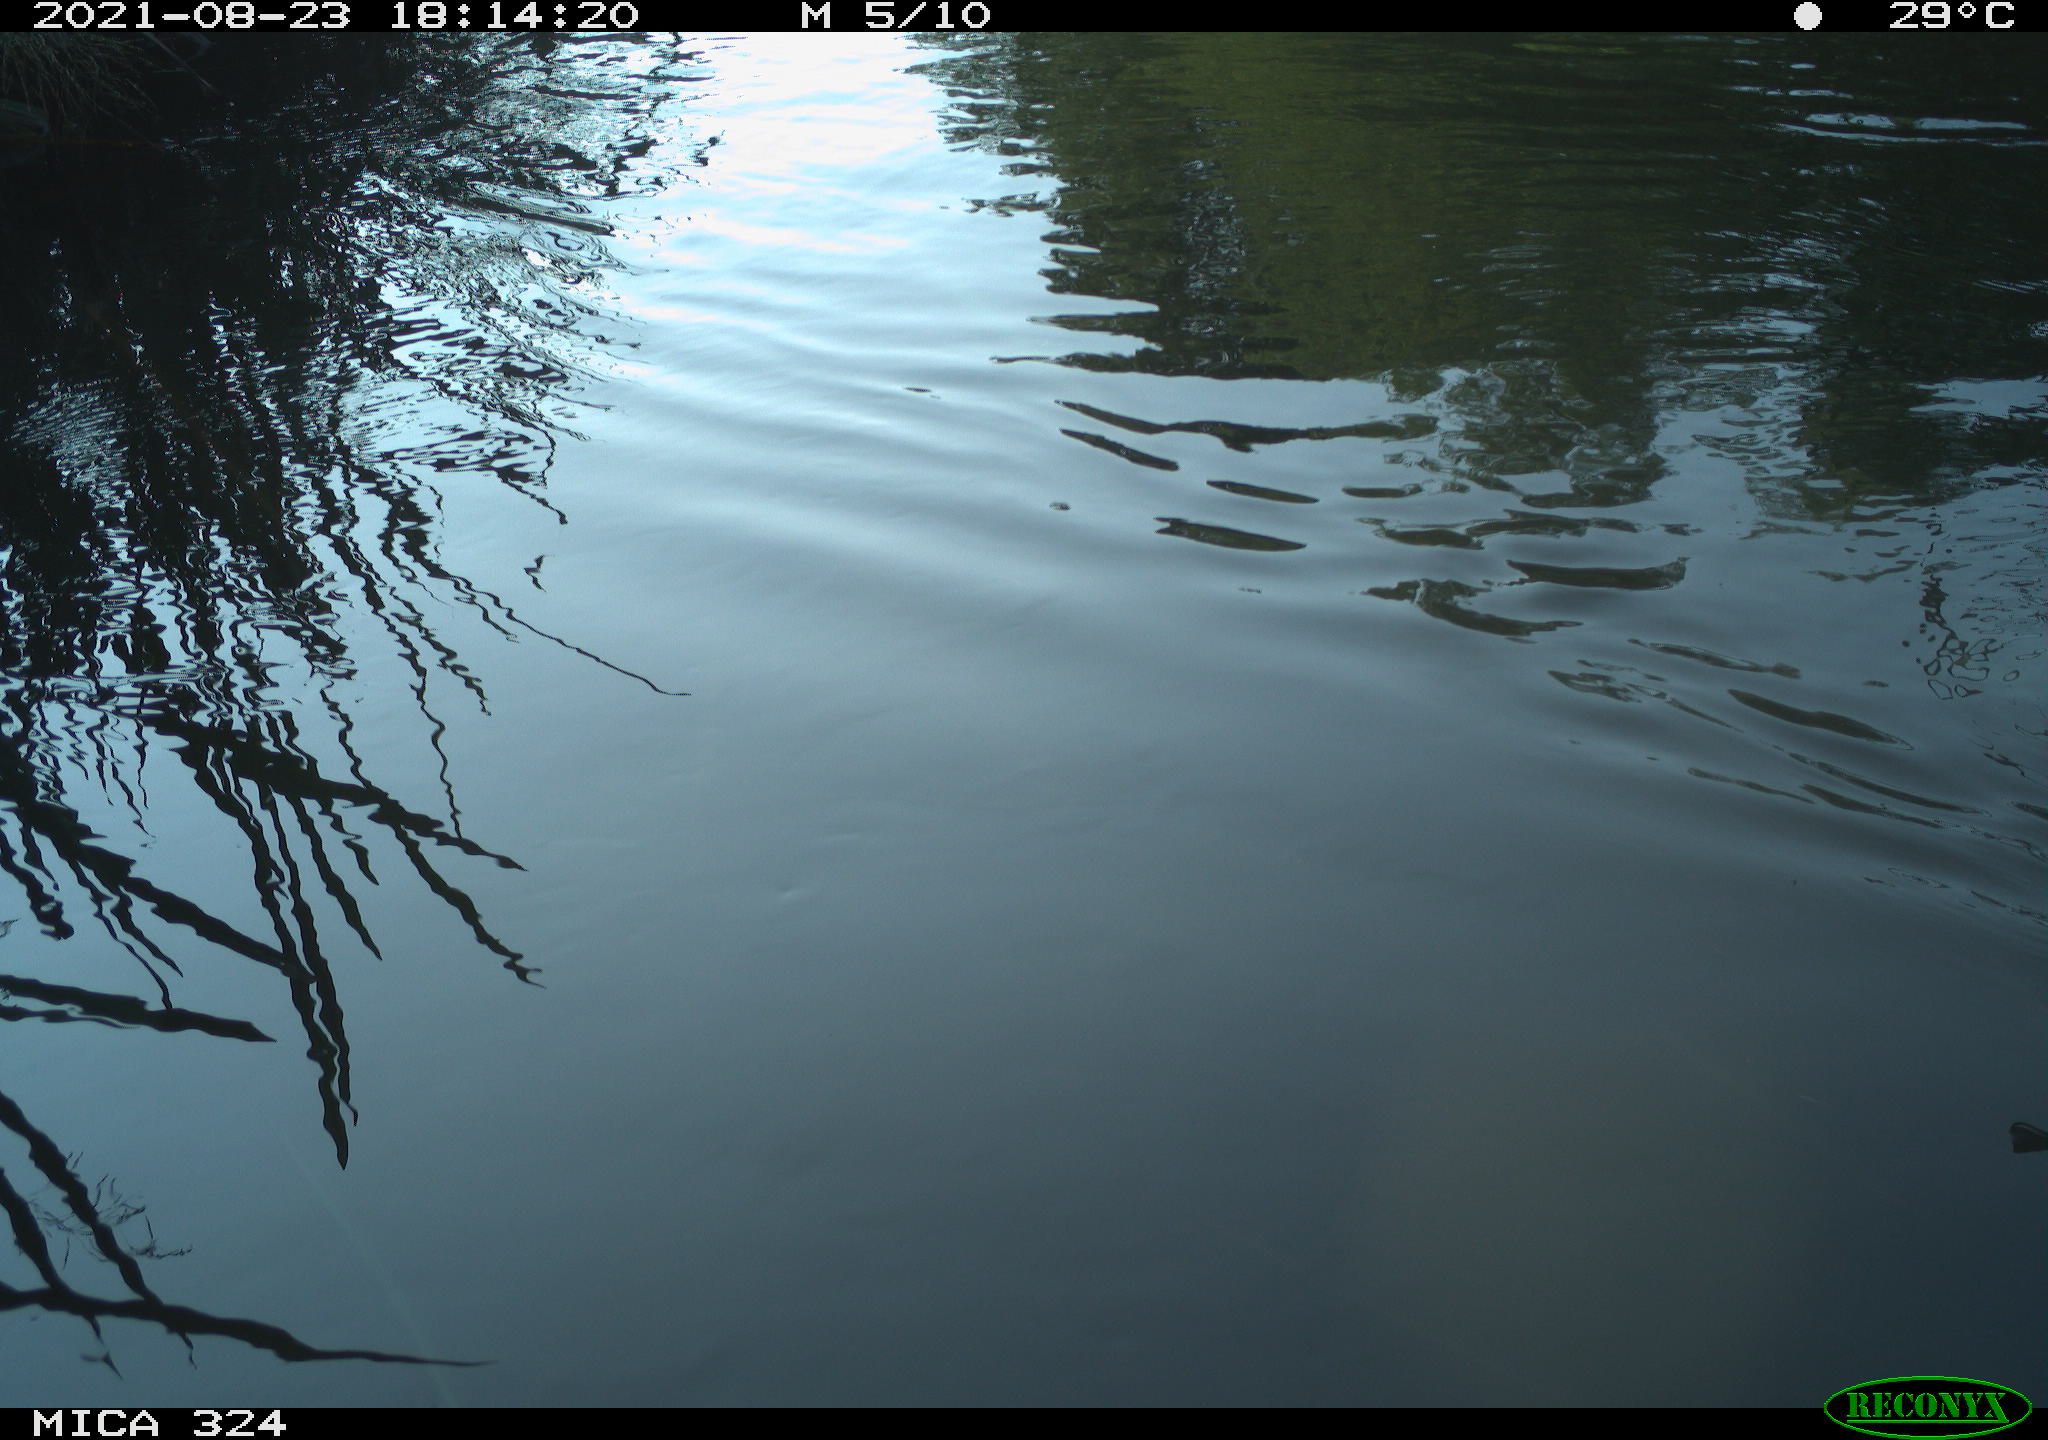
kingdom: Animalia
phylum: Chordata
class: Aves
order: Anseriformes
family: Anatidae
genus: Anas
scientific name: Anas platyrhynchos
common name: Mallard
